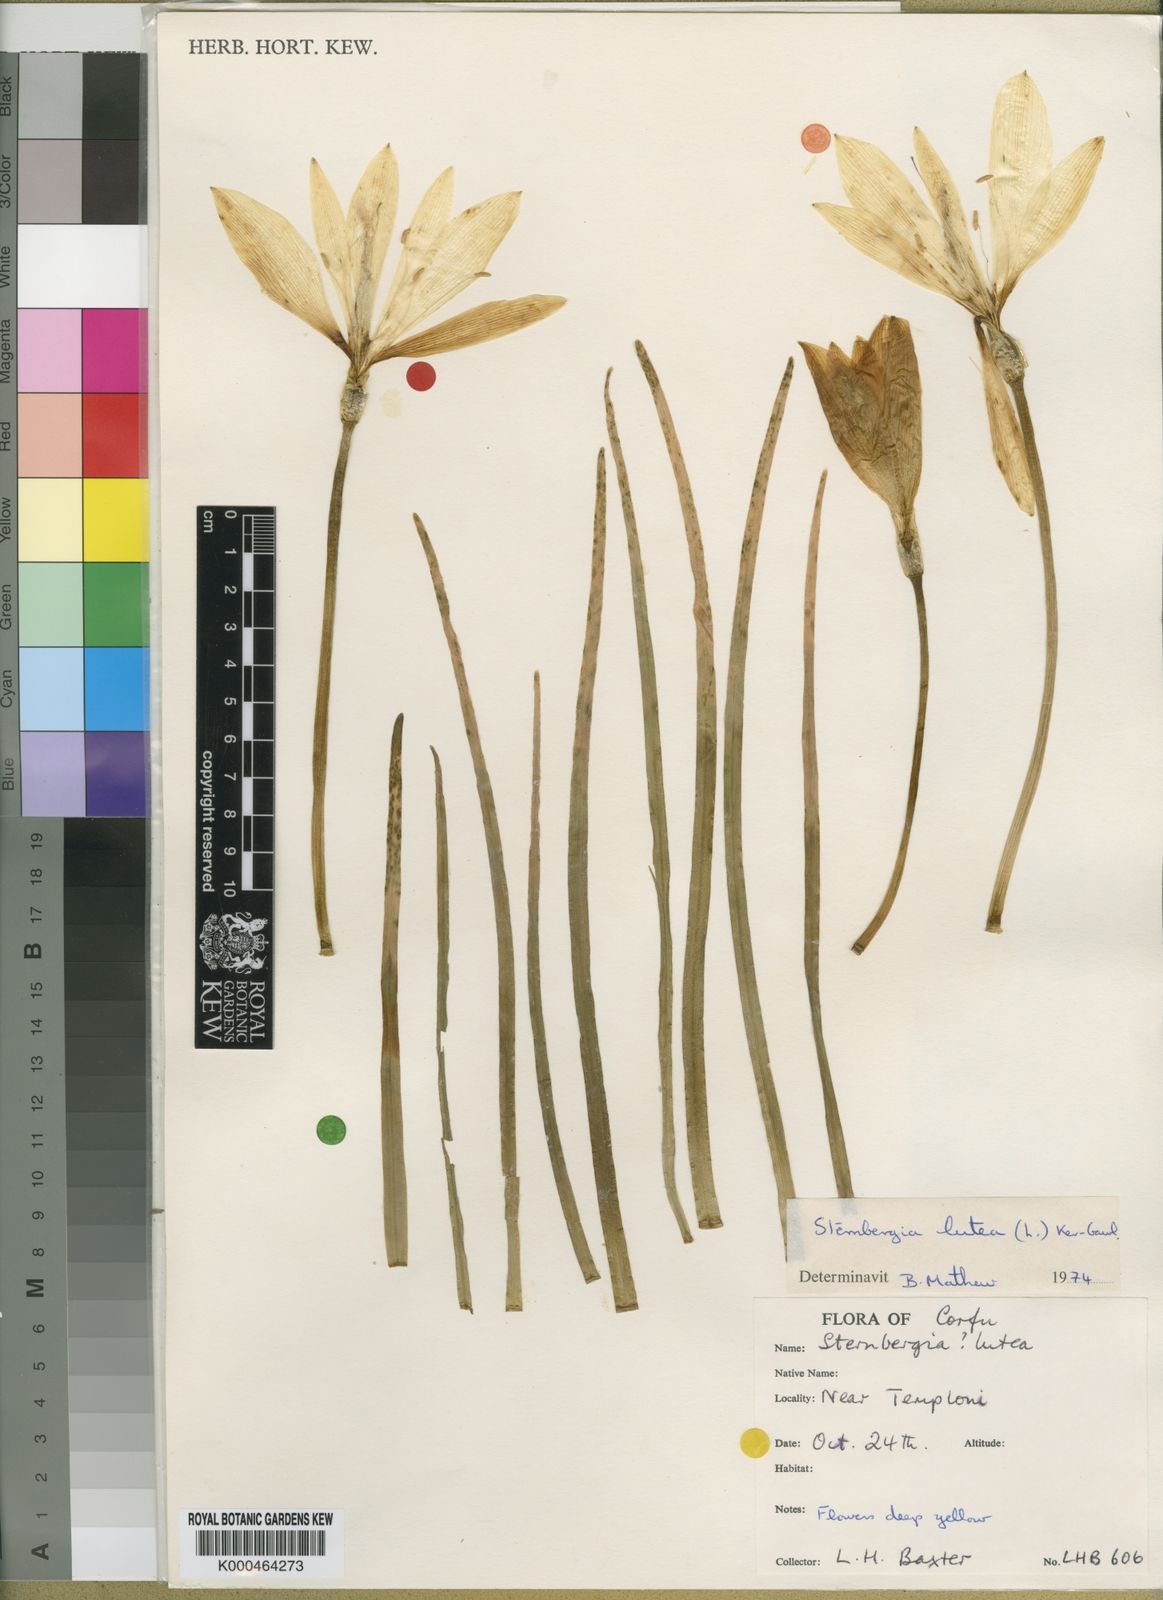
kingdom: Plantae
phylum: Tracheophyta
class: Liliopsida
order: Asparagales
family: Amaryllidaceae
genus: Sternbergia
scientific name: Sternbergia
